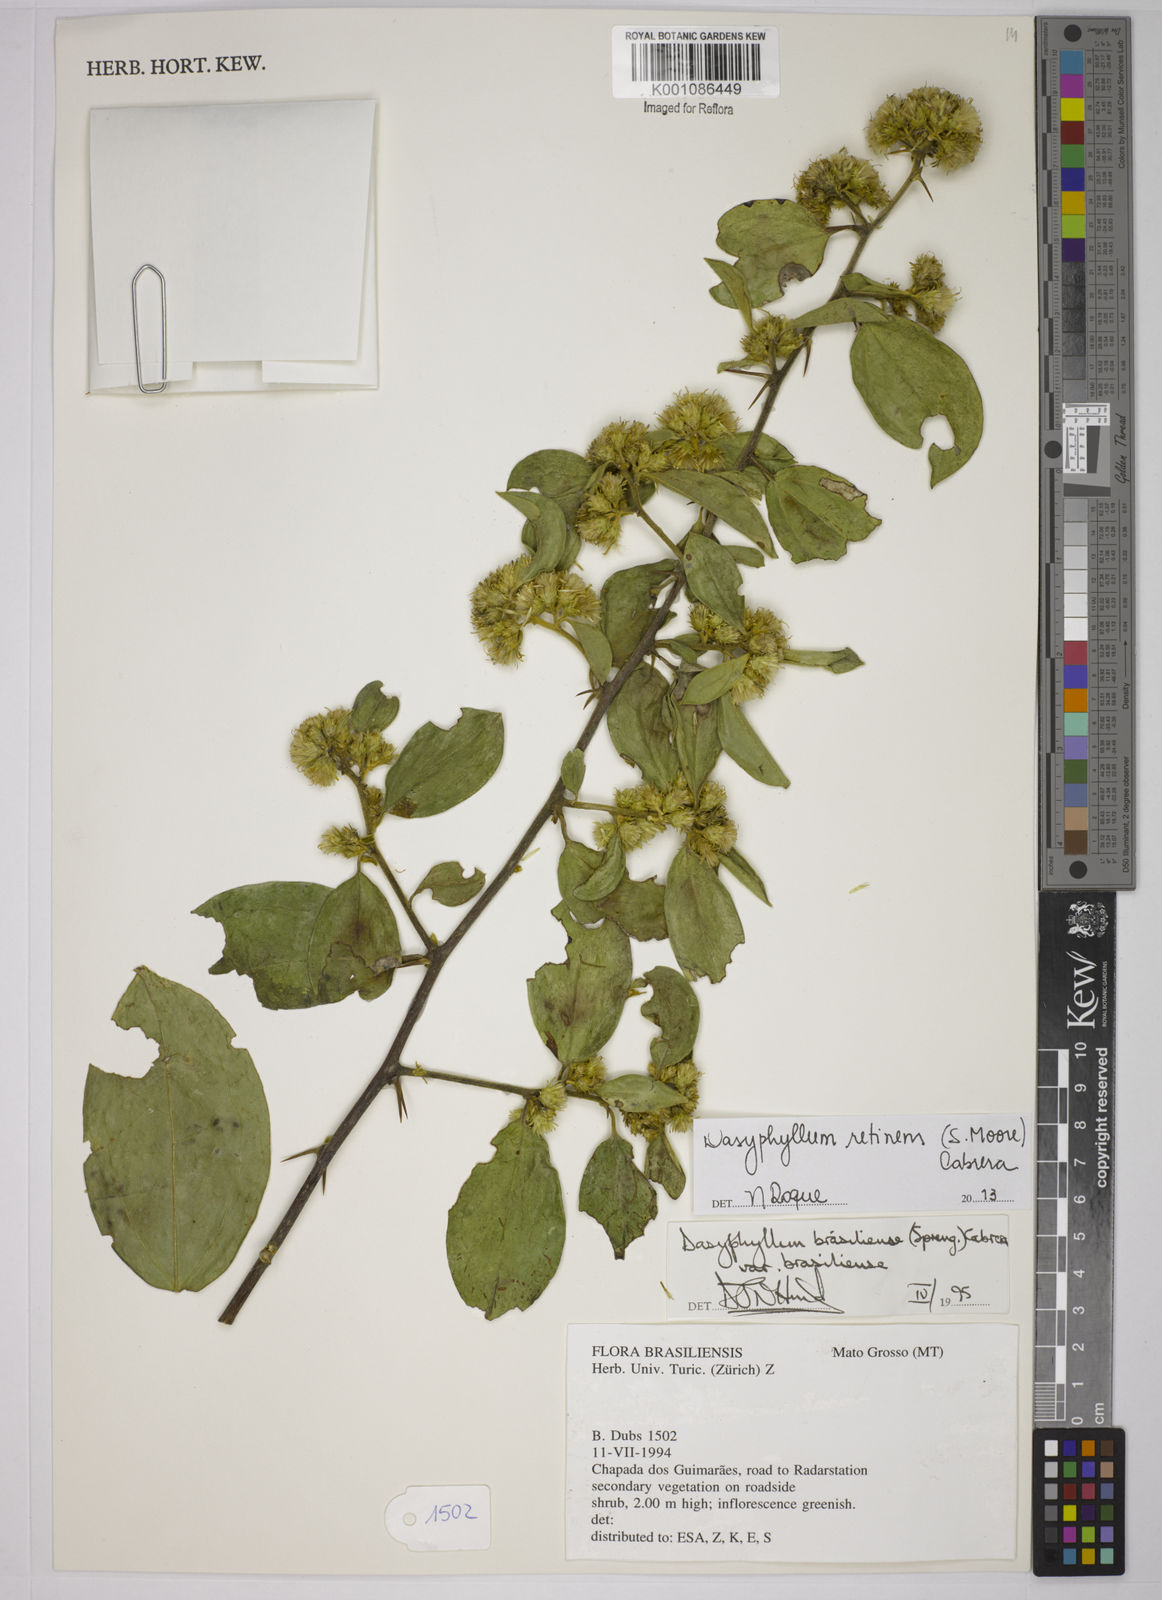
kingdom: Plantae
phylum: Tracheophyta
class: Magnoliopsida
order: Asterales
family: Asteraceae
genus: Dasyphyllum
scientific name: Dasyphyllum brasiliense
